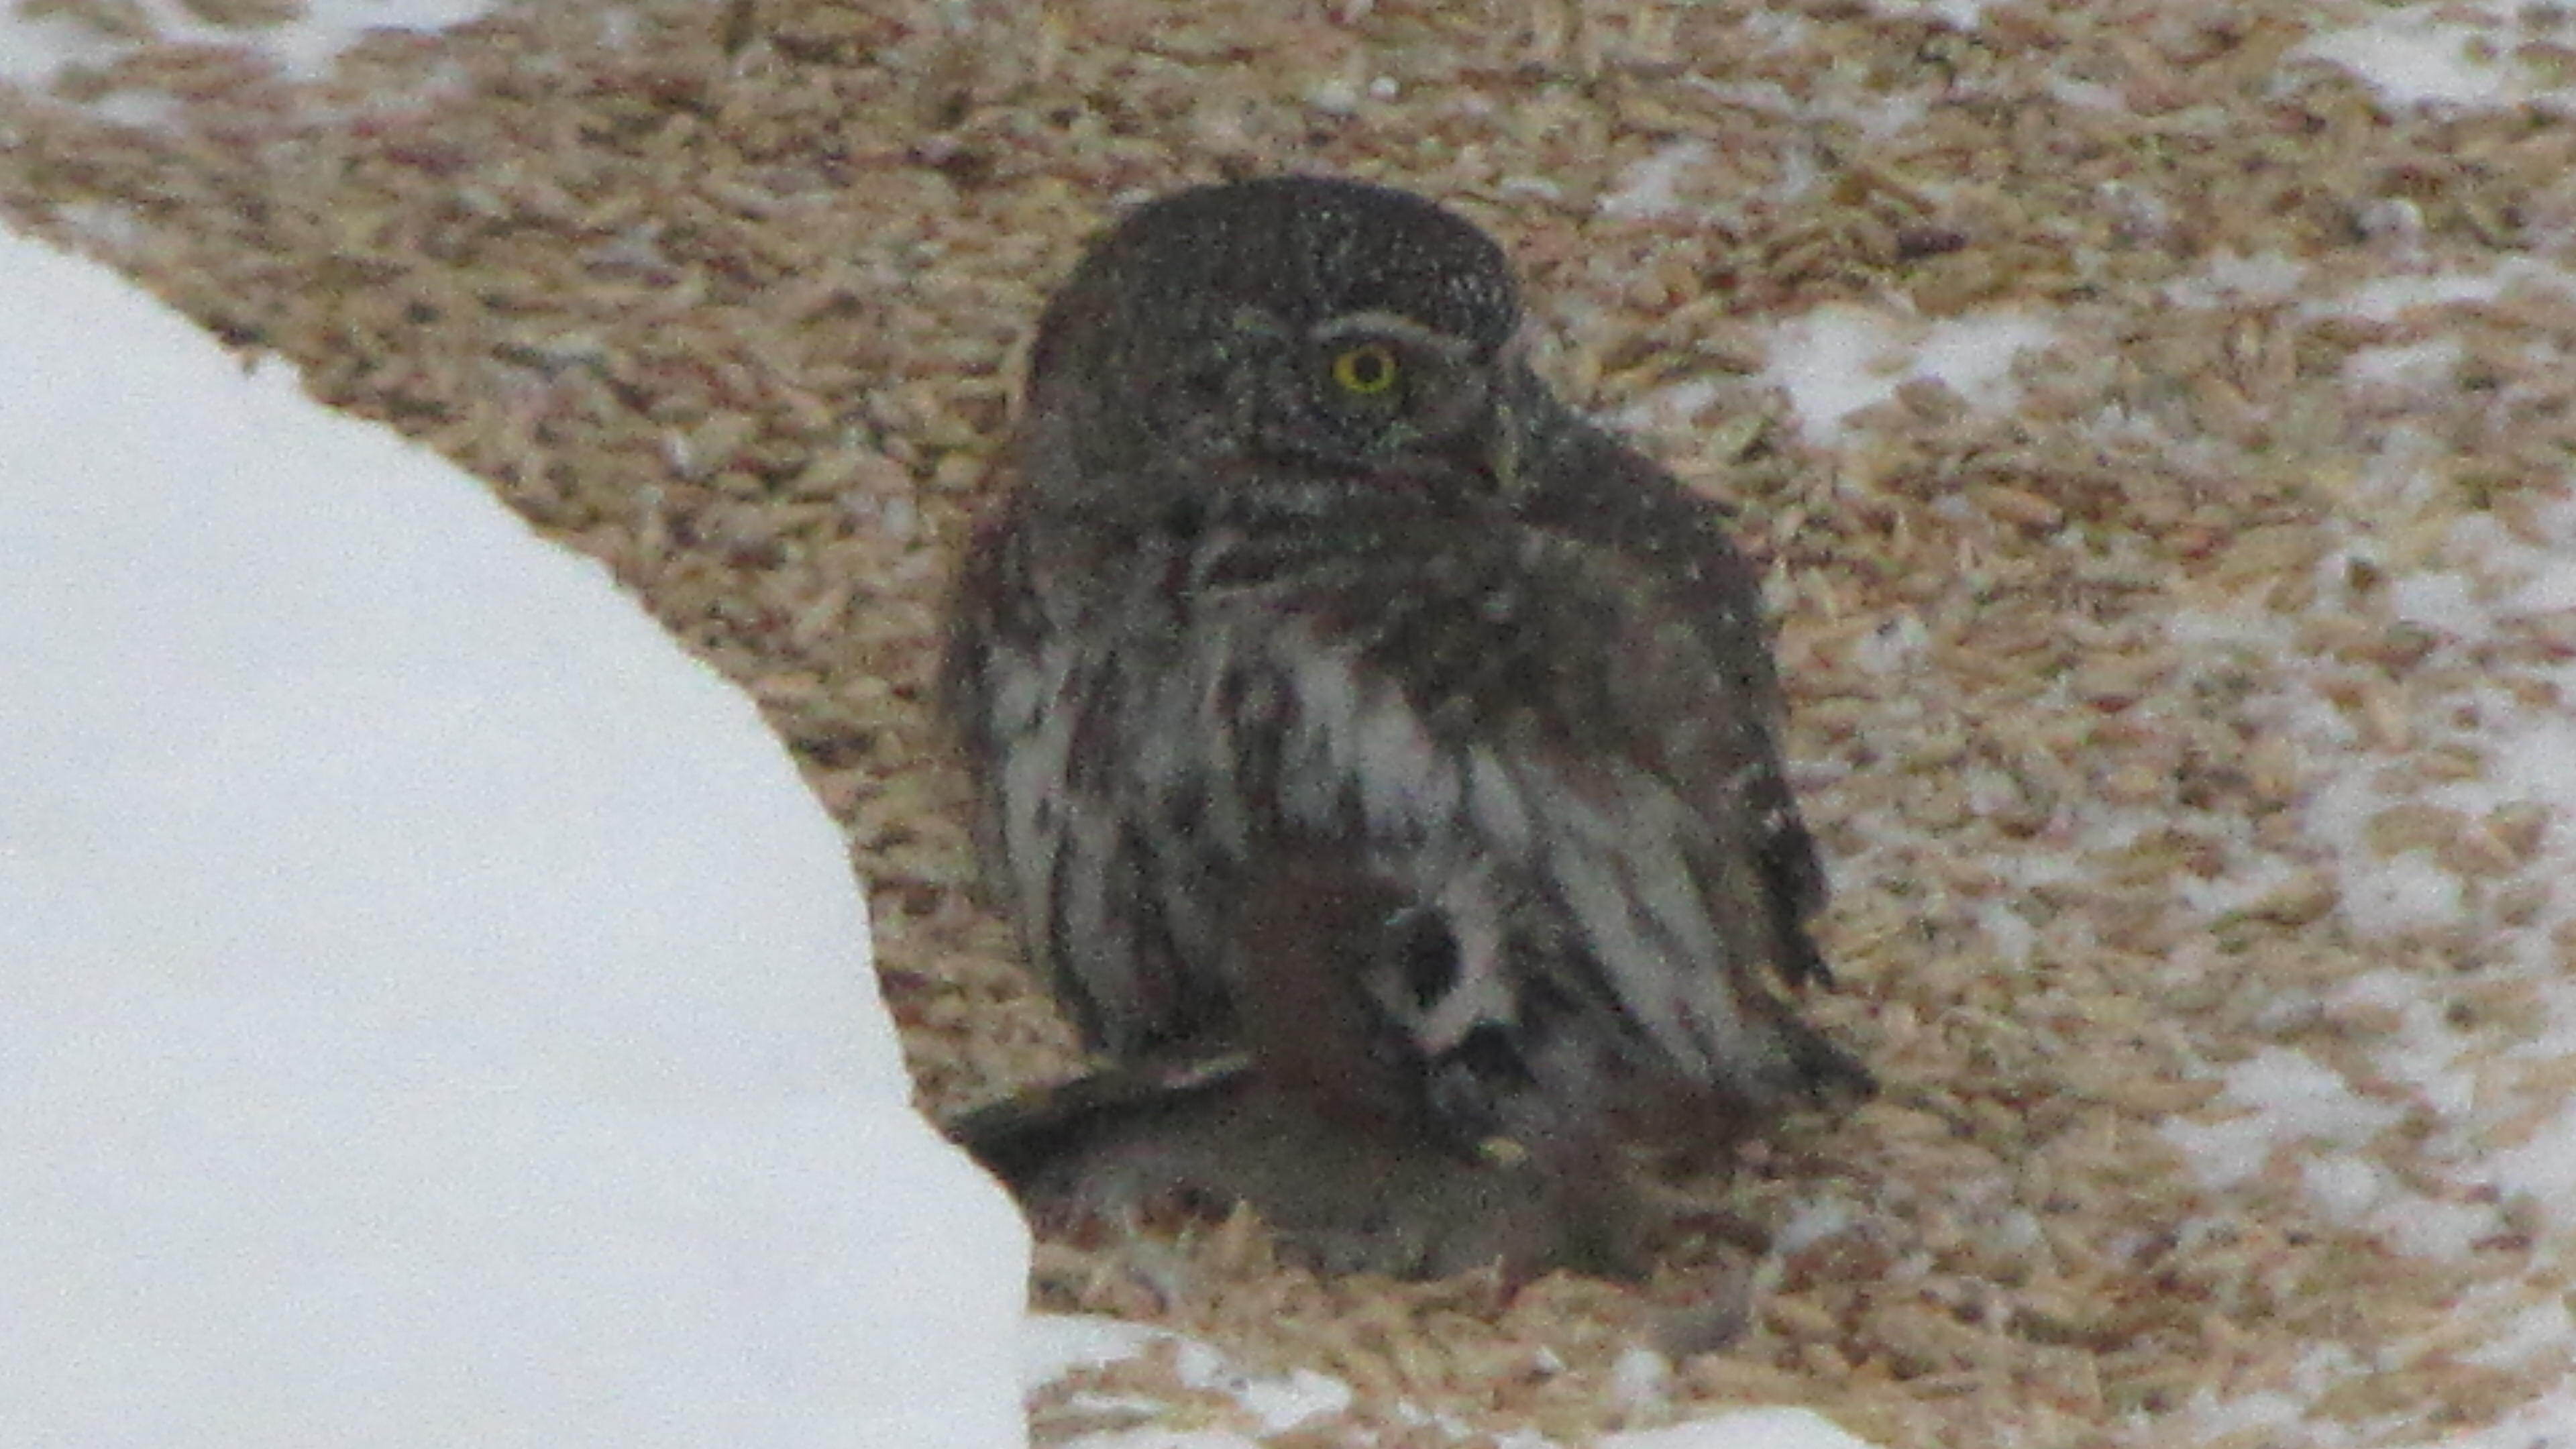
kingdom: Animalia
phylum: Chordata
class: Aves
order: Strigiformes
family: Strigidae
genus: Glaucidium
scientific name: Glaucidium passerinum
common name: Eurasian pygmy owl
